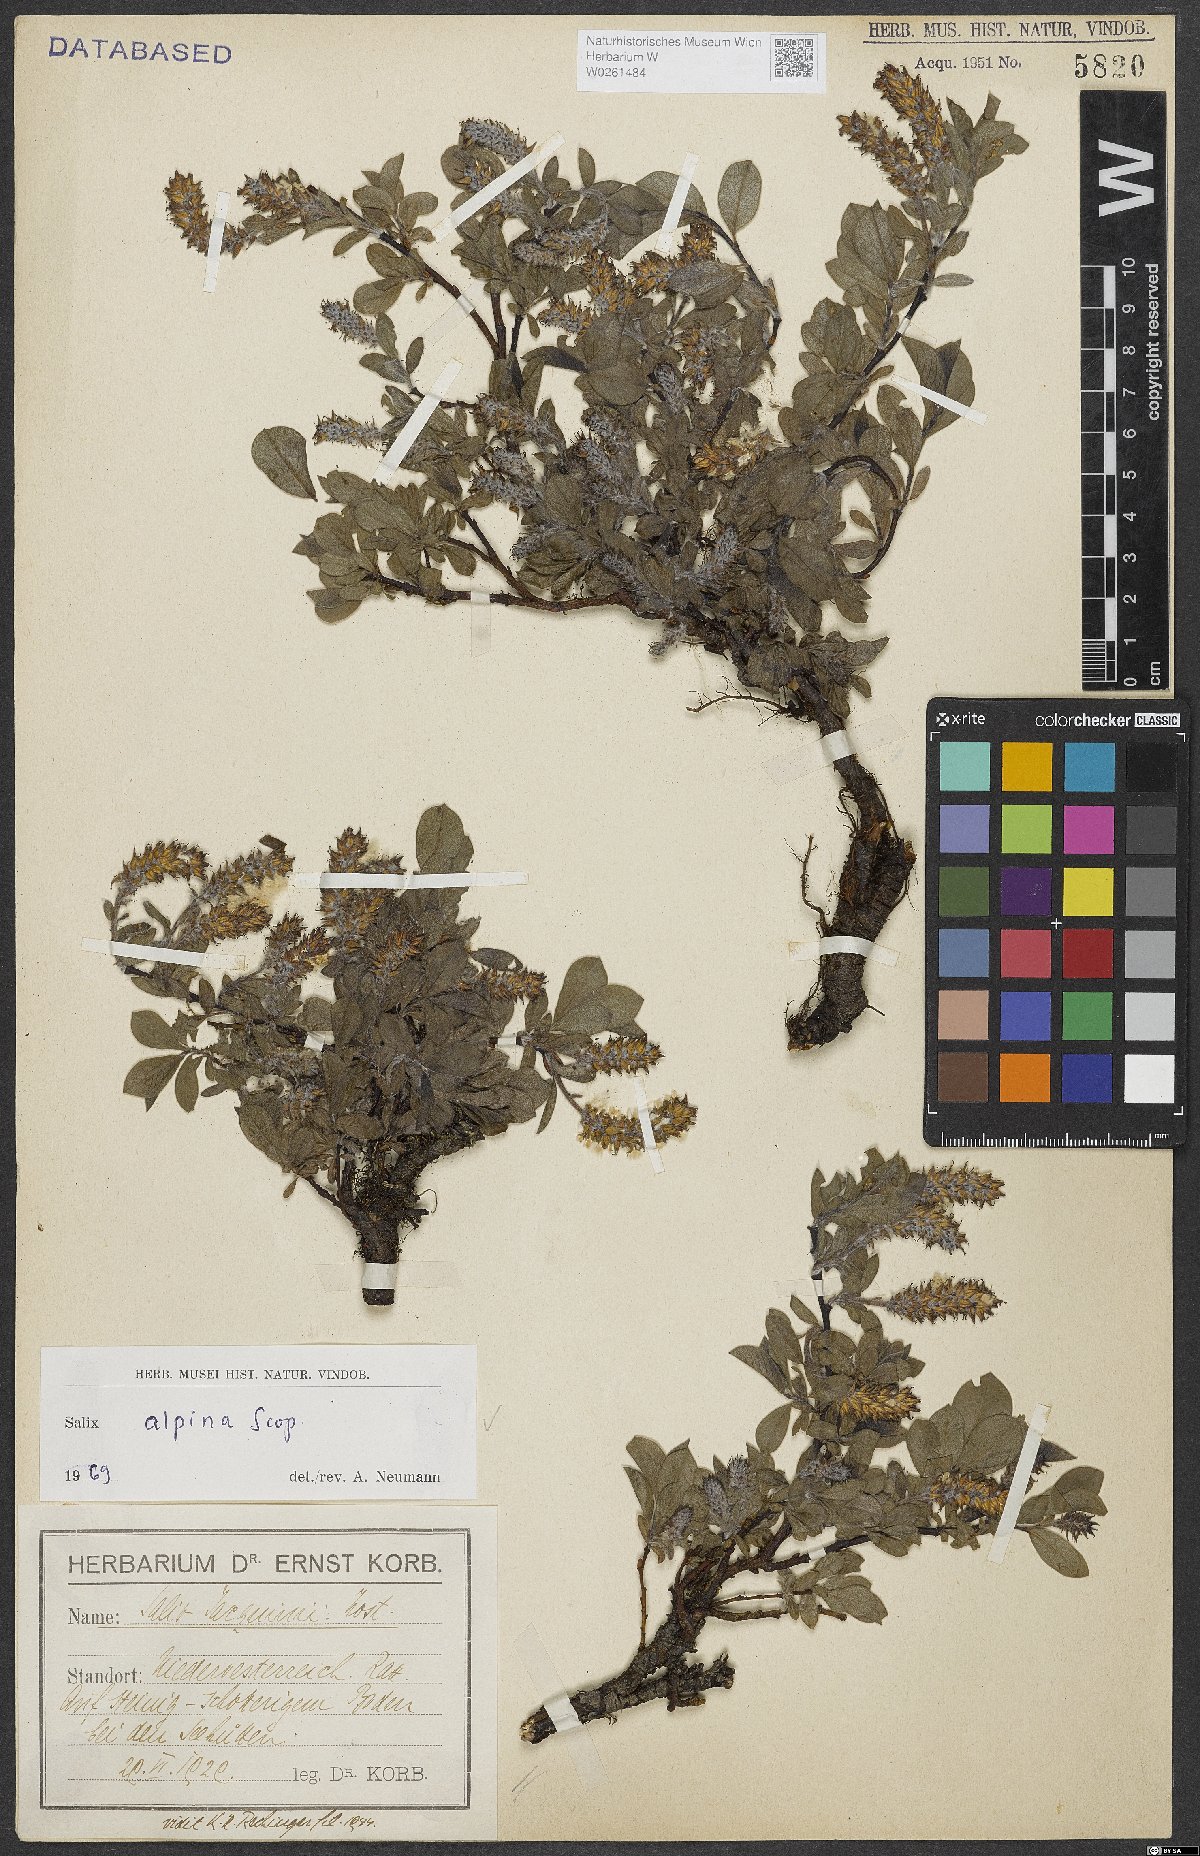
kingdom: Plantae
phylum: Tracheophyta
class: Magnoliopsida
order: Malpighiales
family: Salicaceae
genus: Salix
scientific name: Salix alpina
